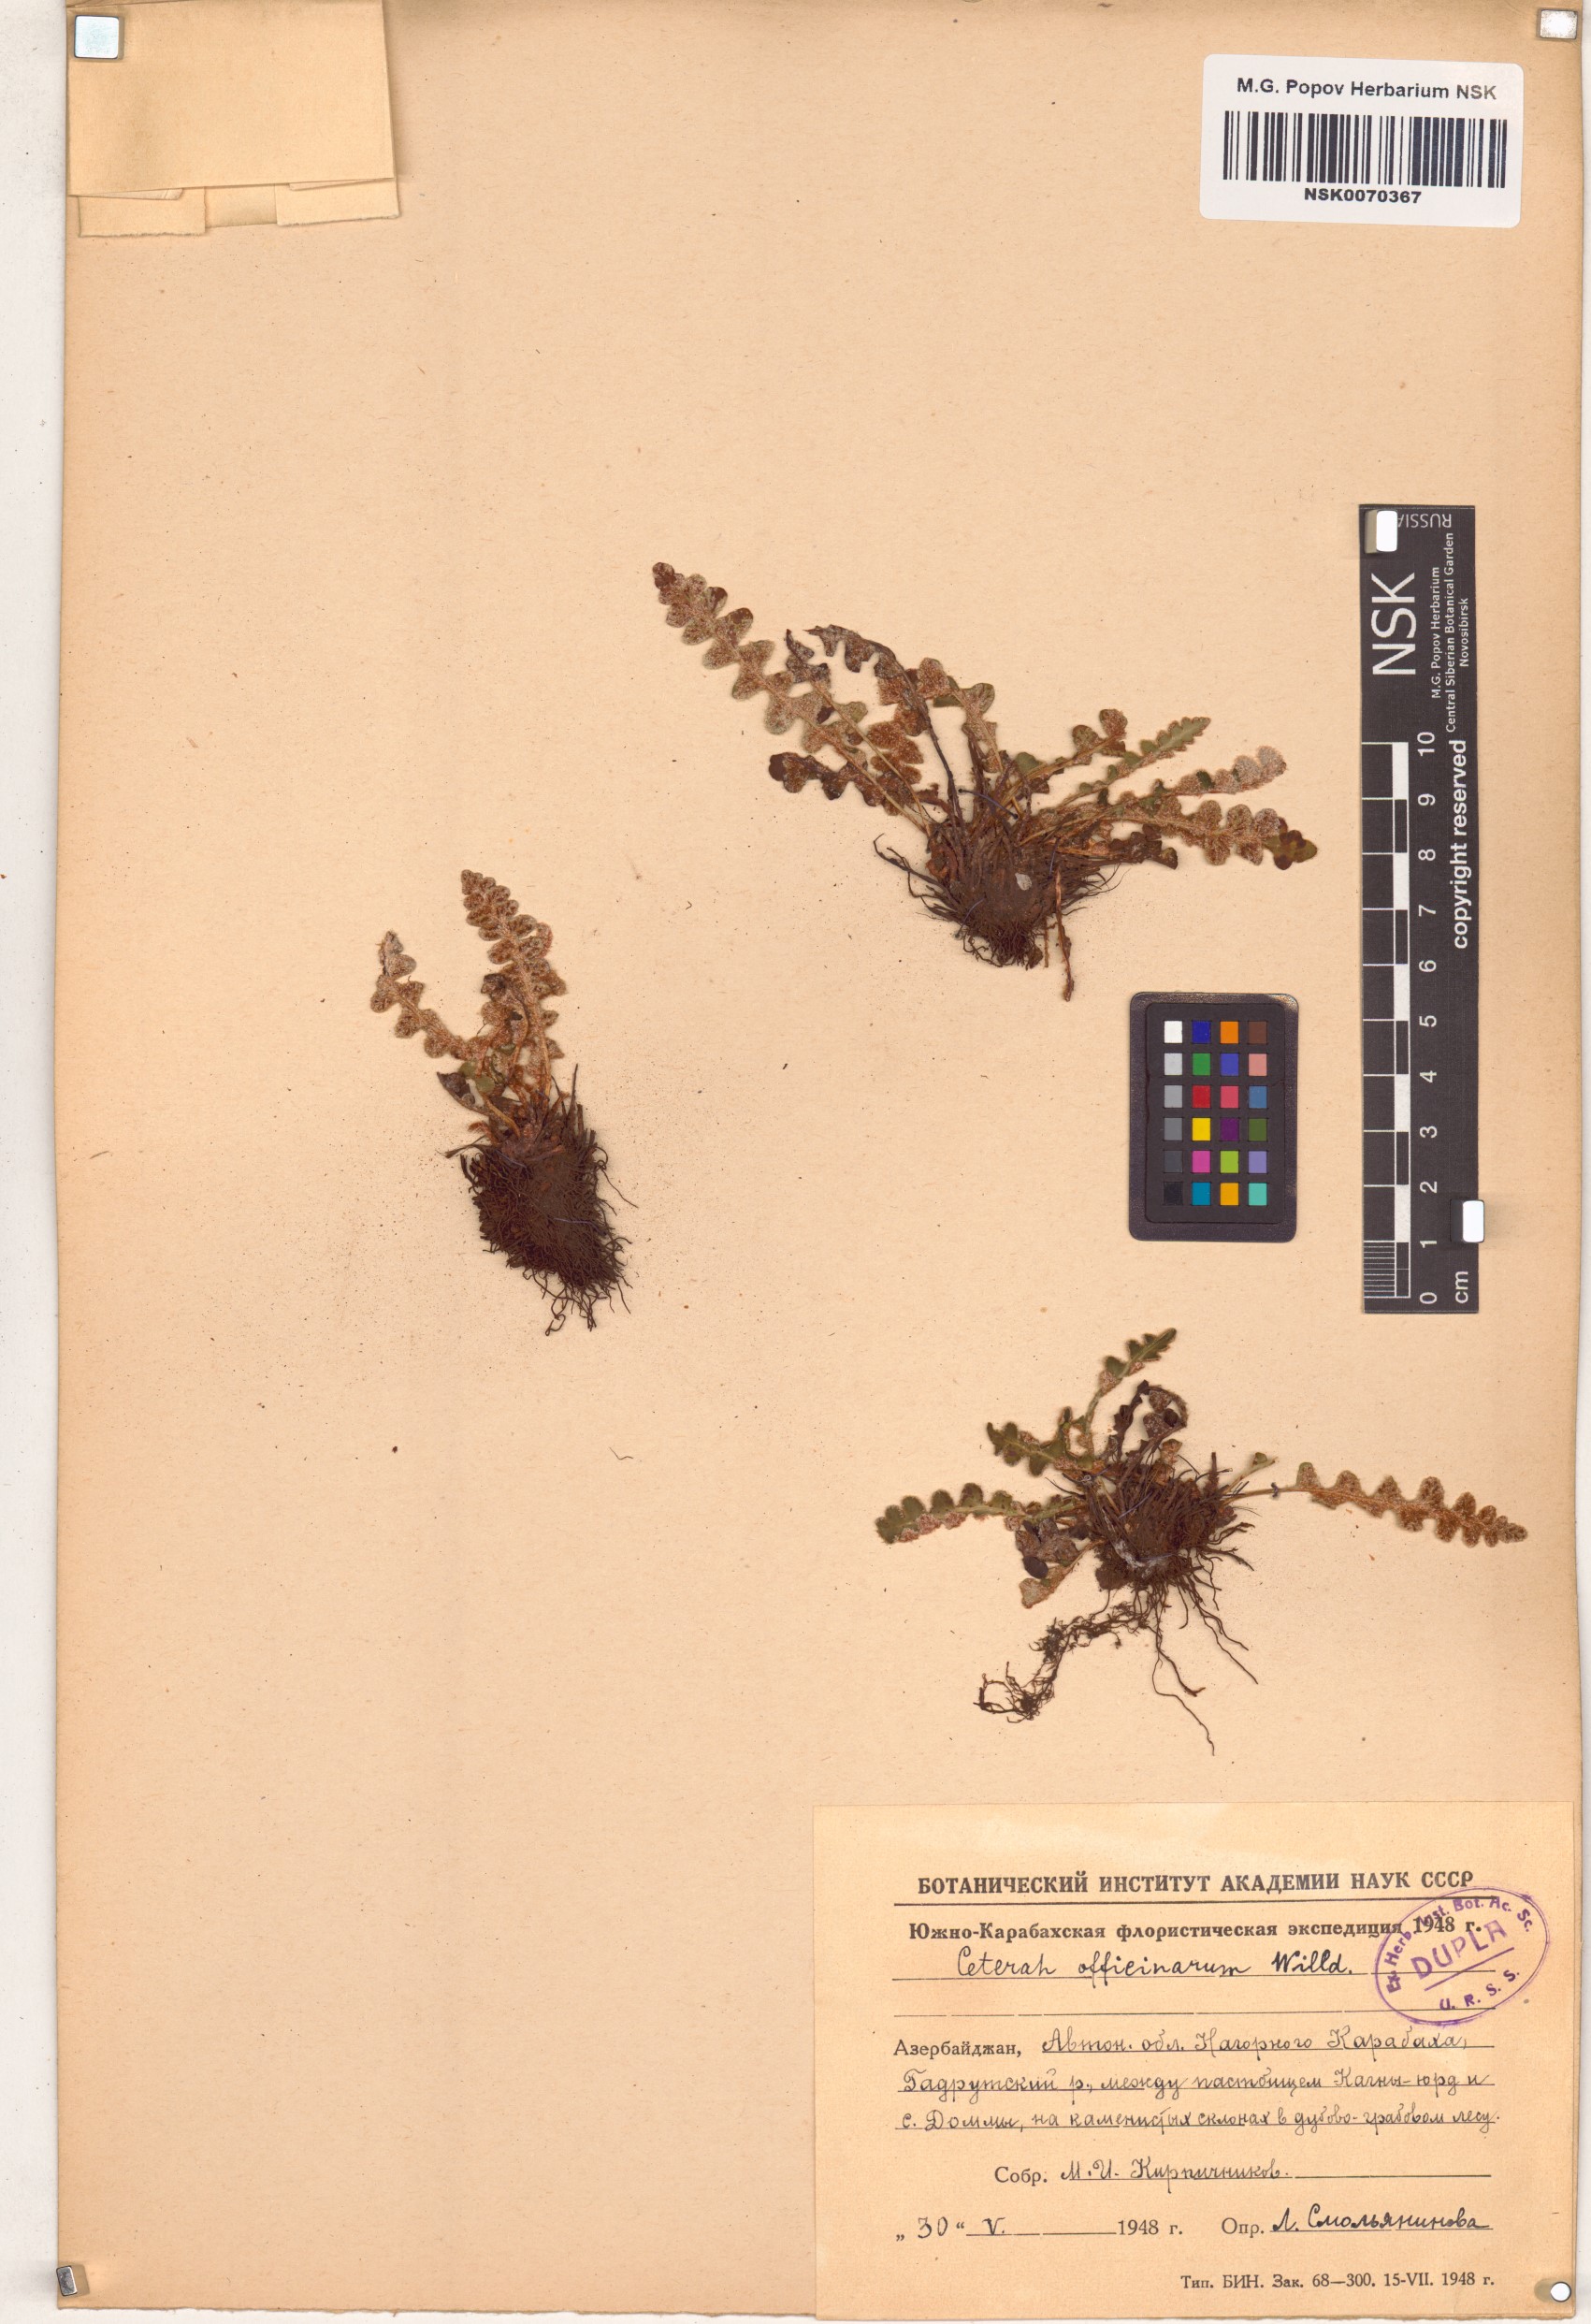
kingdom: Plantae
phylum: Tracheophyta
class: Polypodiopsida
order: Polypodiales
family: Aspleniaceae
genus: Asplenium
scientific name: Asplenium ceterach
